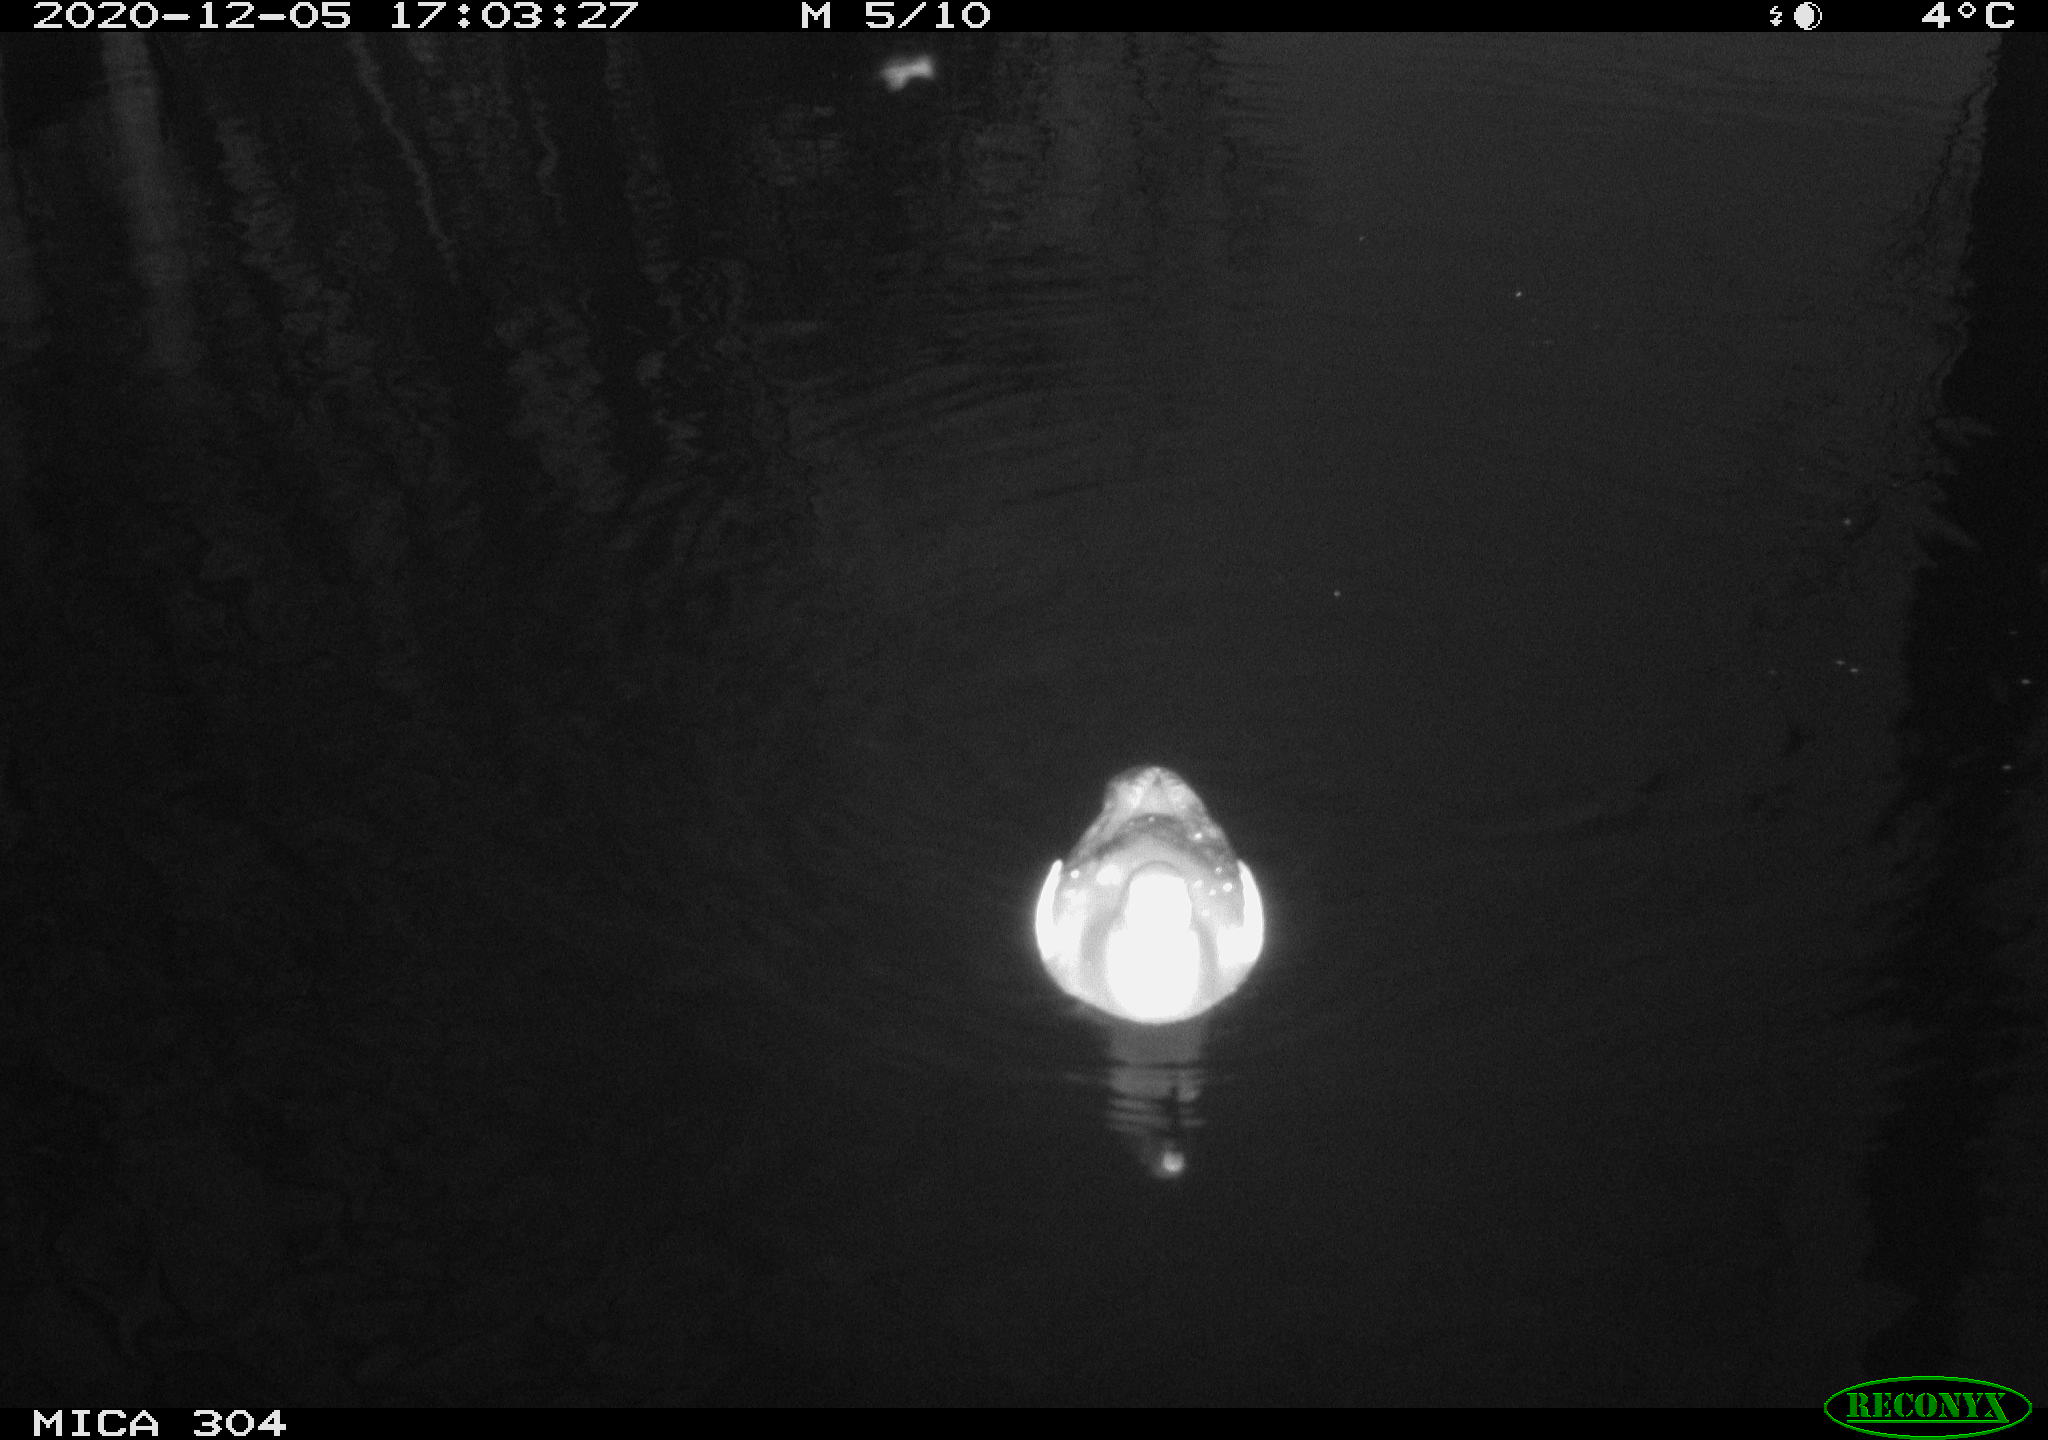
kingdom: Animalia
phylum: Chordata
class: Aves
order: Gruiformes
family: Rallidae
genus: Gallinula
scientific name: Gallinula chloropus
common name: Common moorhen
